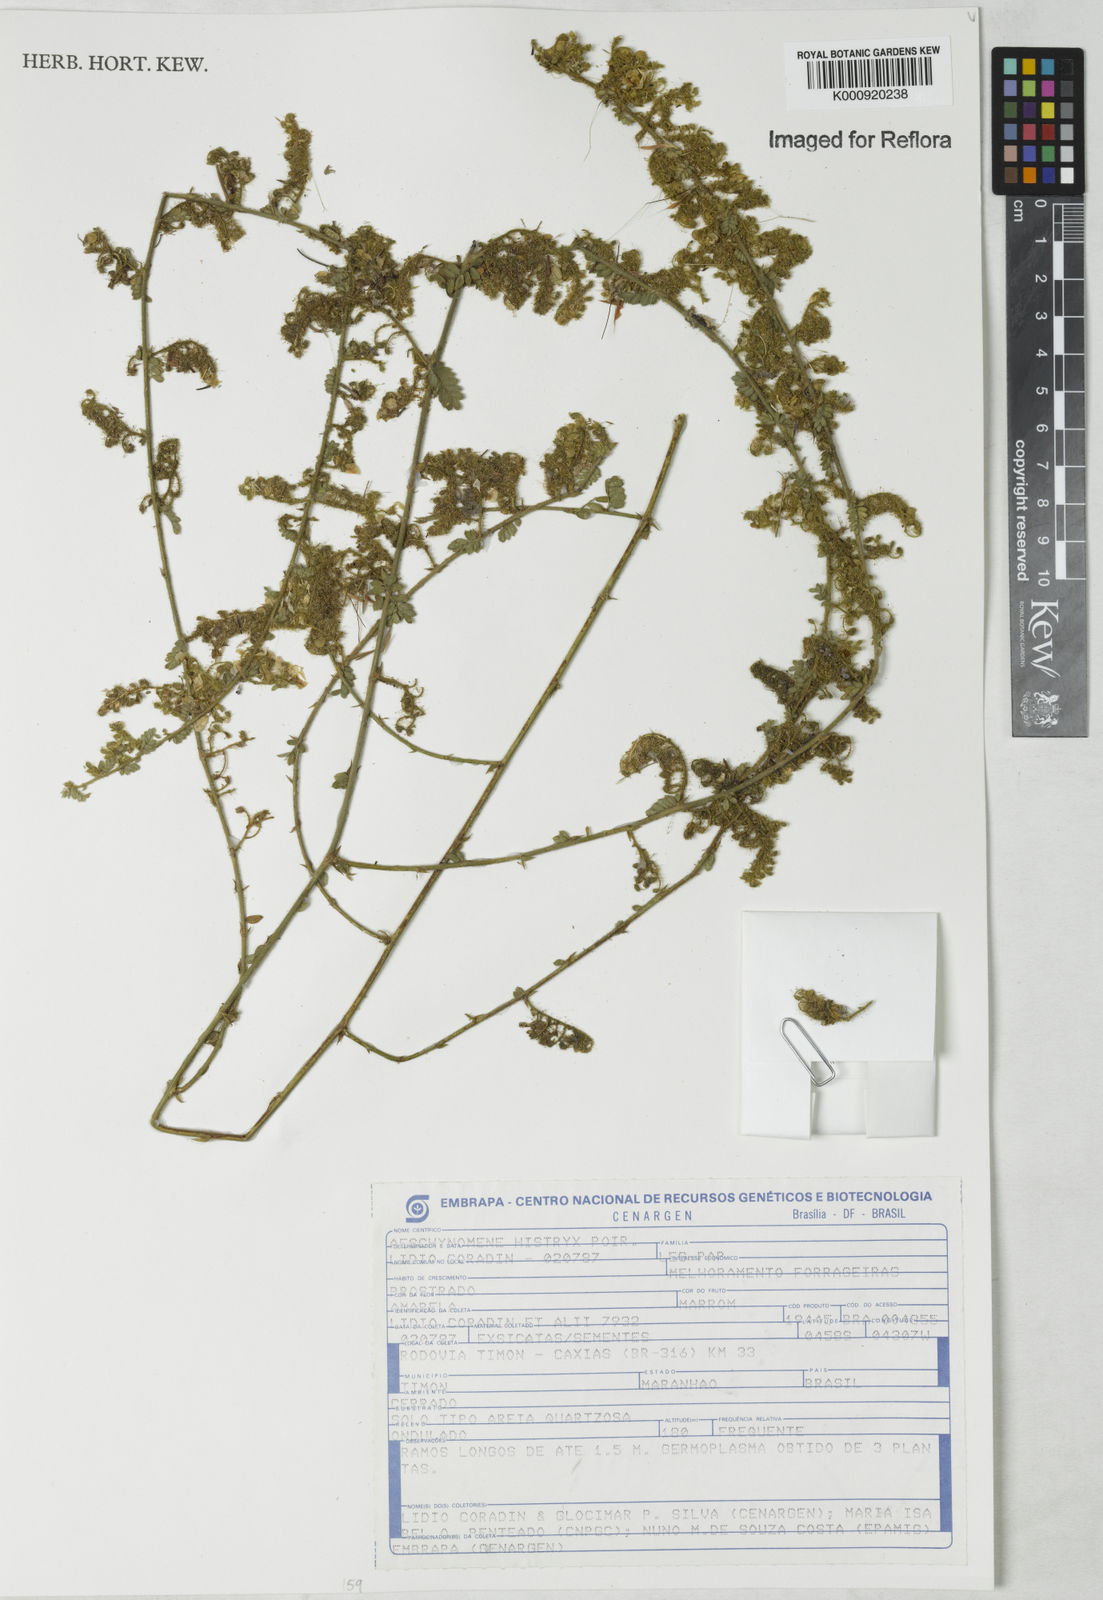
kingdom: Plantae
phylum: Tracheophyta
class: Magnoliopsida
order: Fabales
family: Fabaceae
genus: Ctenodon
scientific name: Ctenodon histrix
